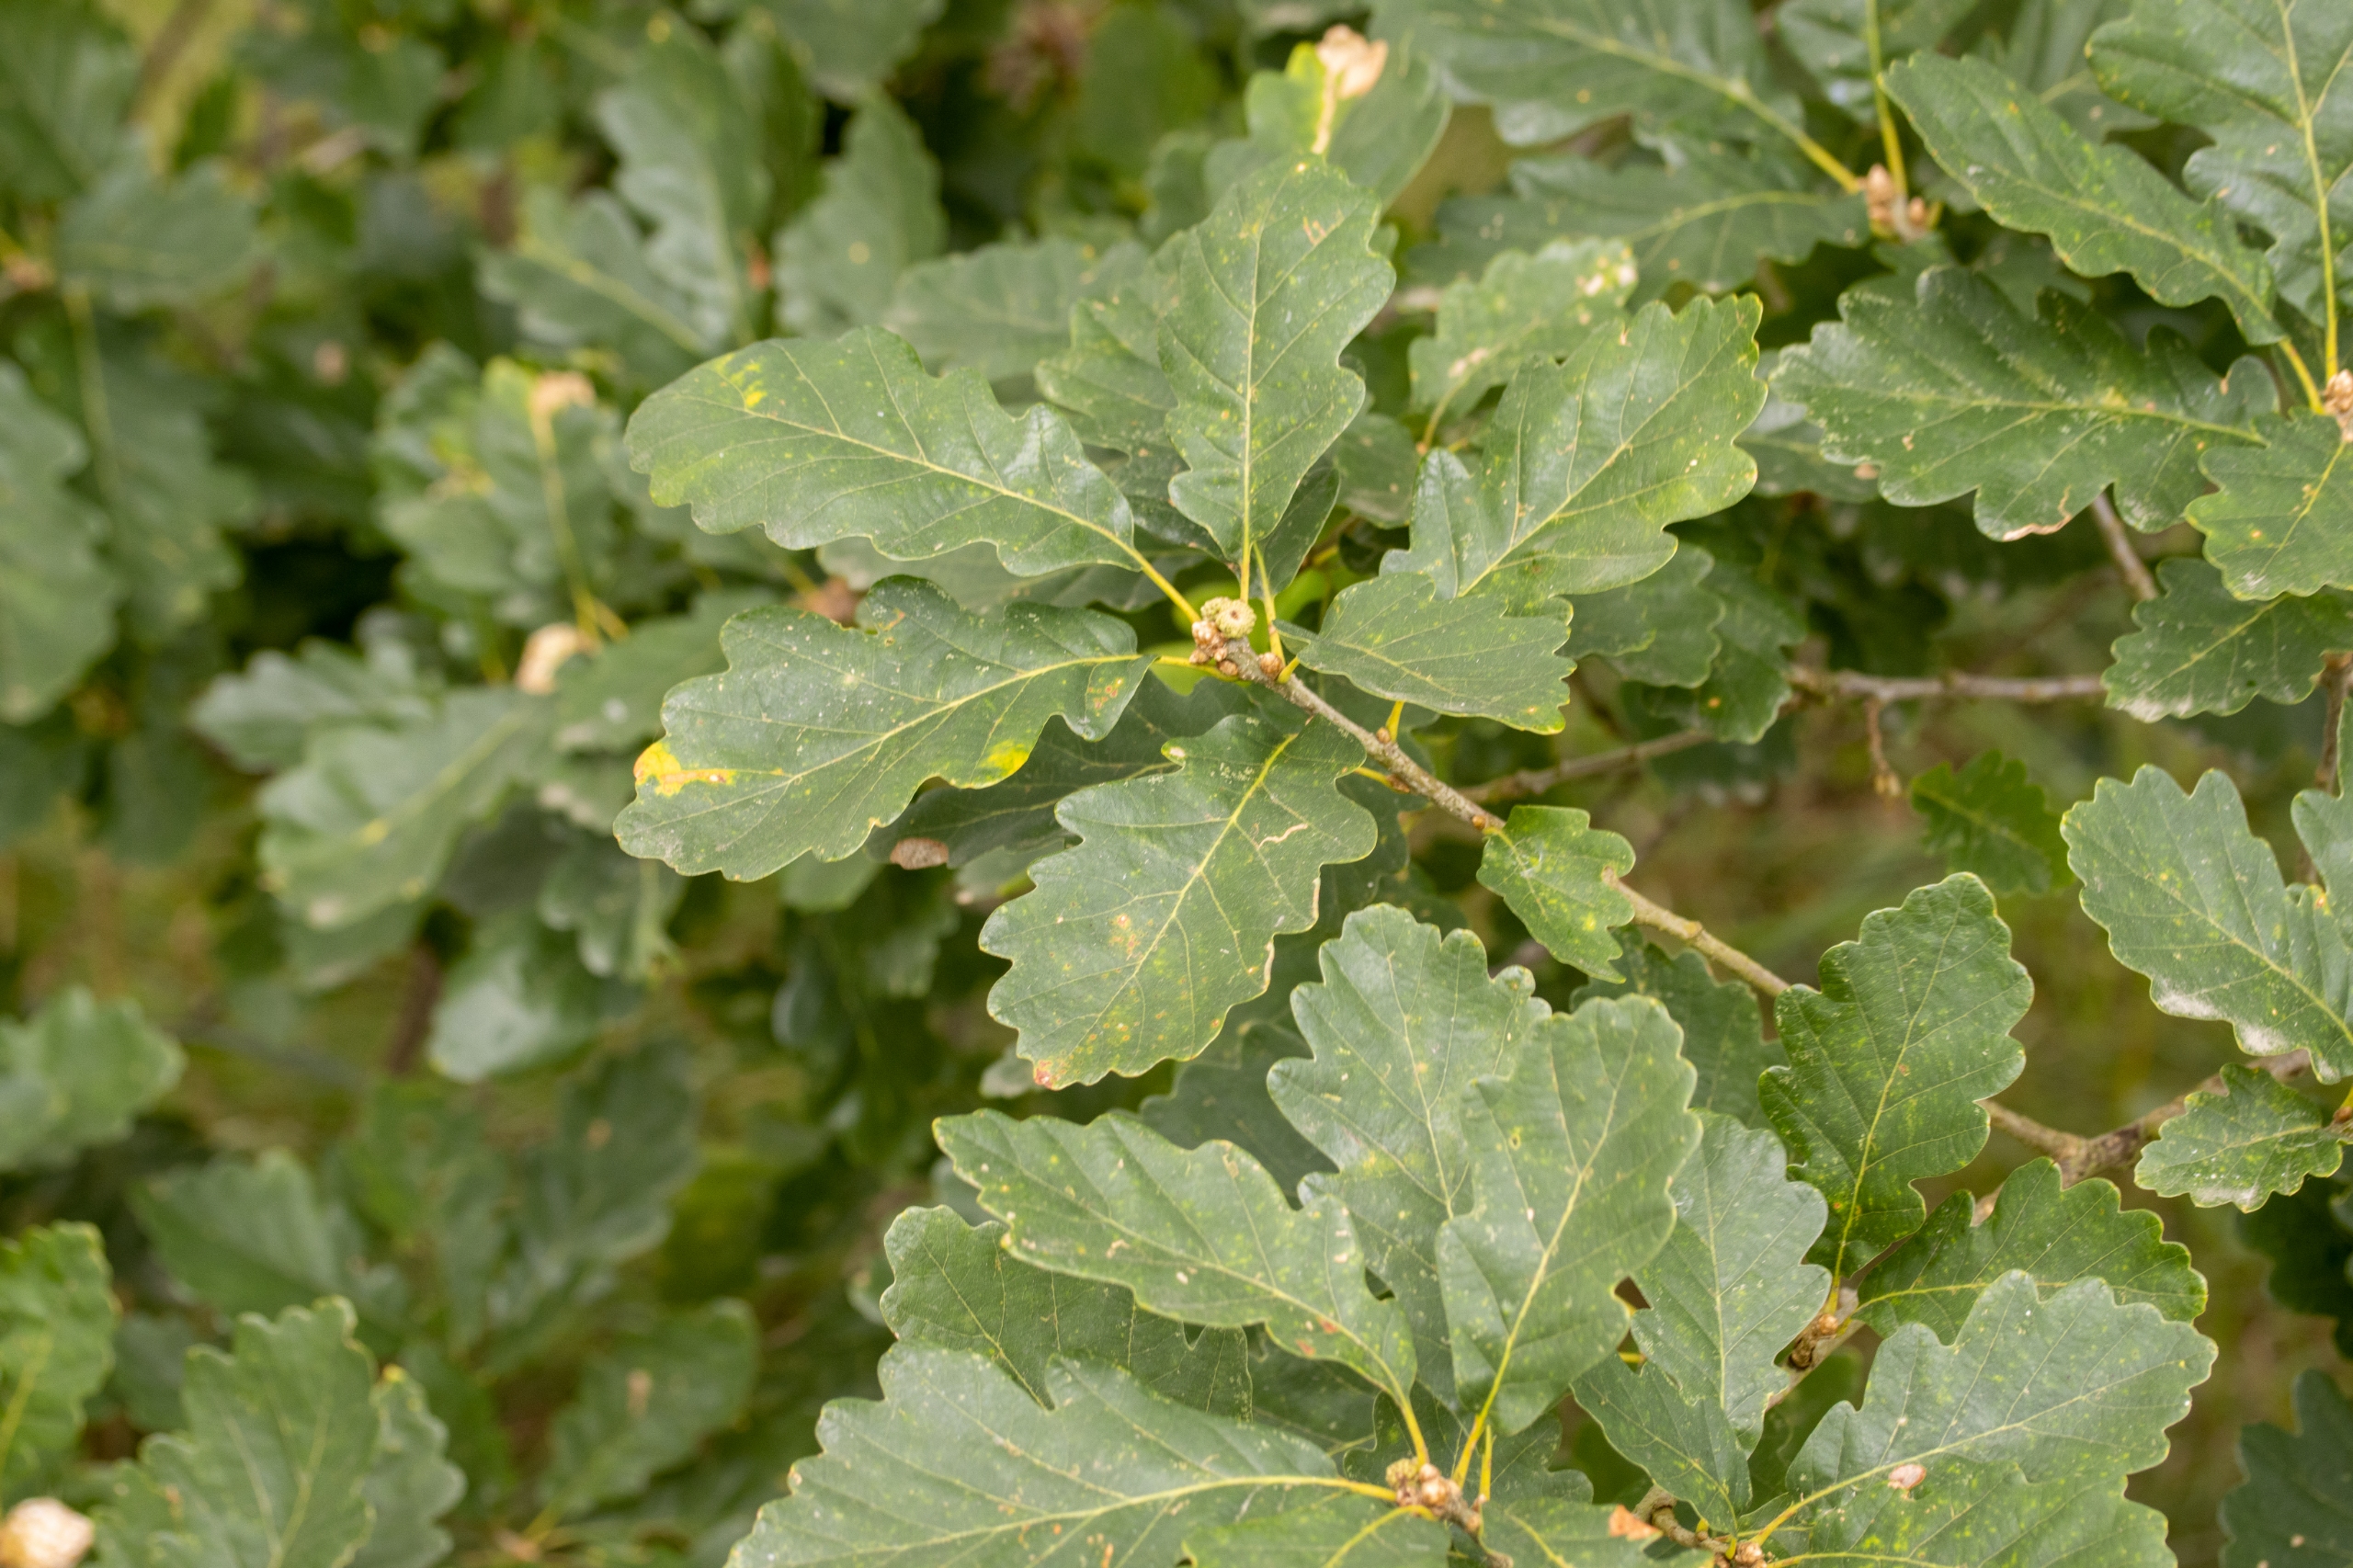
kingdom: Plantae
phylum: Tracheophyta
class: Magnoliopsida
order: Fagales
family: Fagaceae
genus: Quercus
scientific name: Quercus robur
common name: Stilk-eg/almindelig eg
